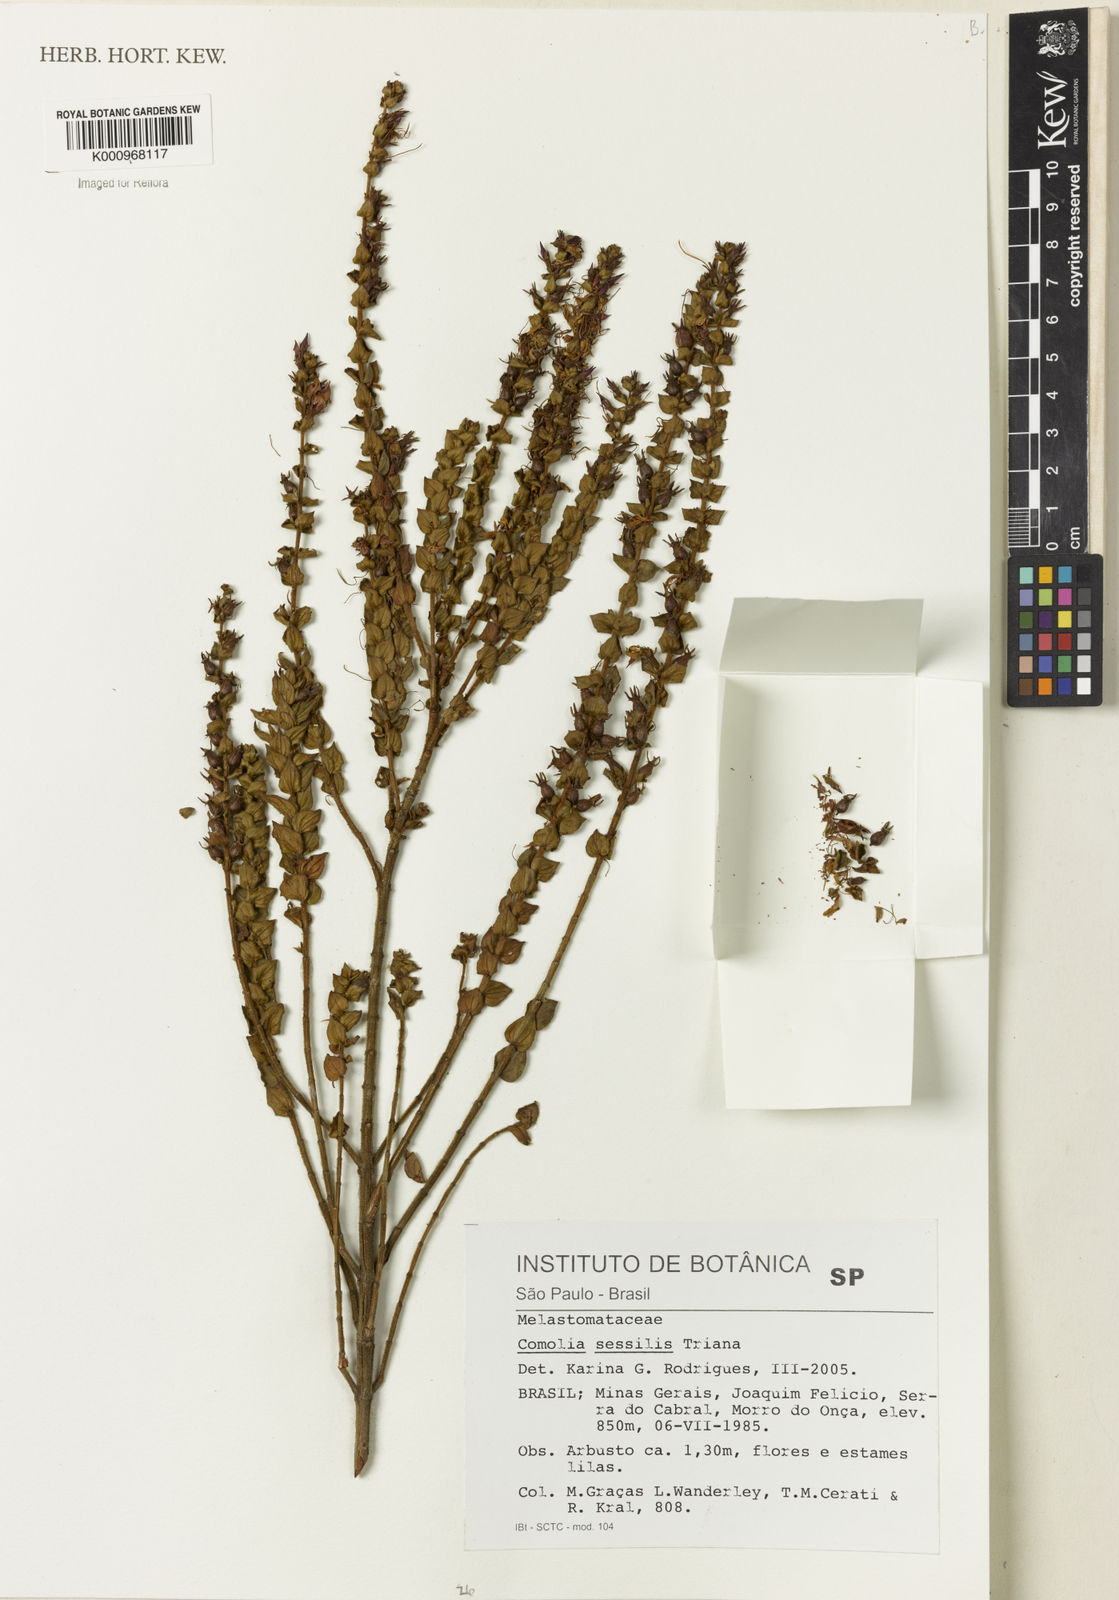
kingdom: Plantae
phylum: Tracheophyta
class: Magnoliopsida
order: Myrtales
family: Melastomataceae
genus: Fritzschia
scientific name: Fritzschia sessilis
